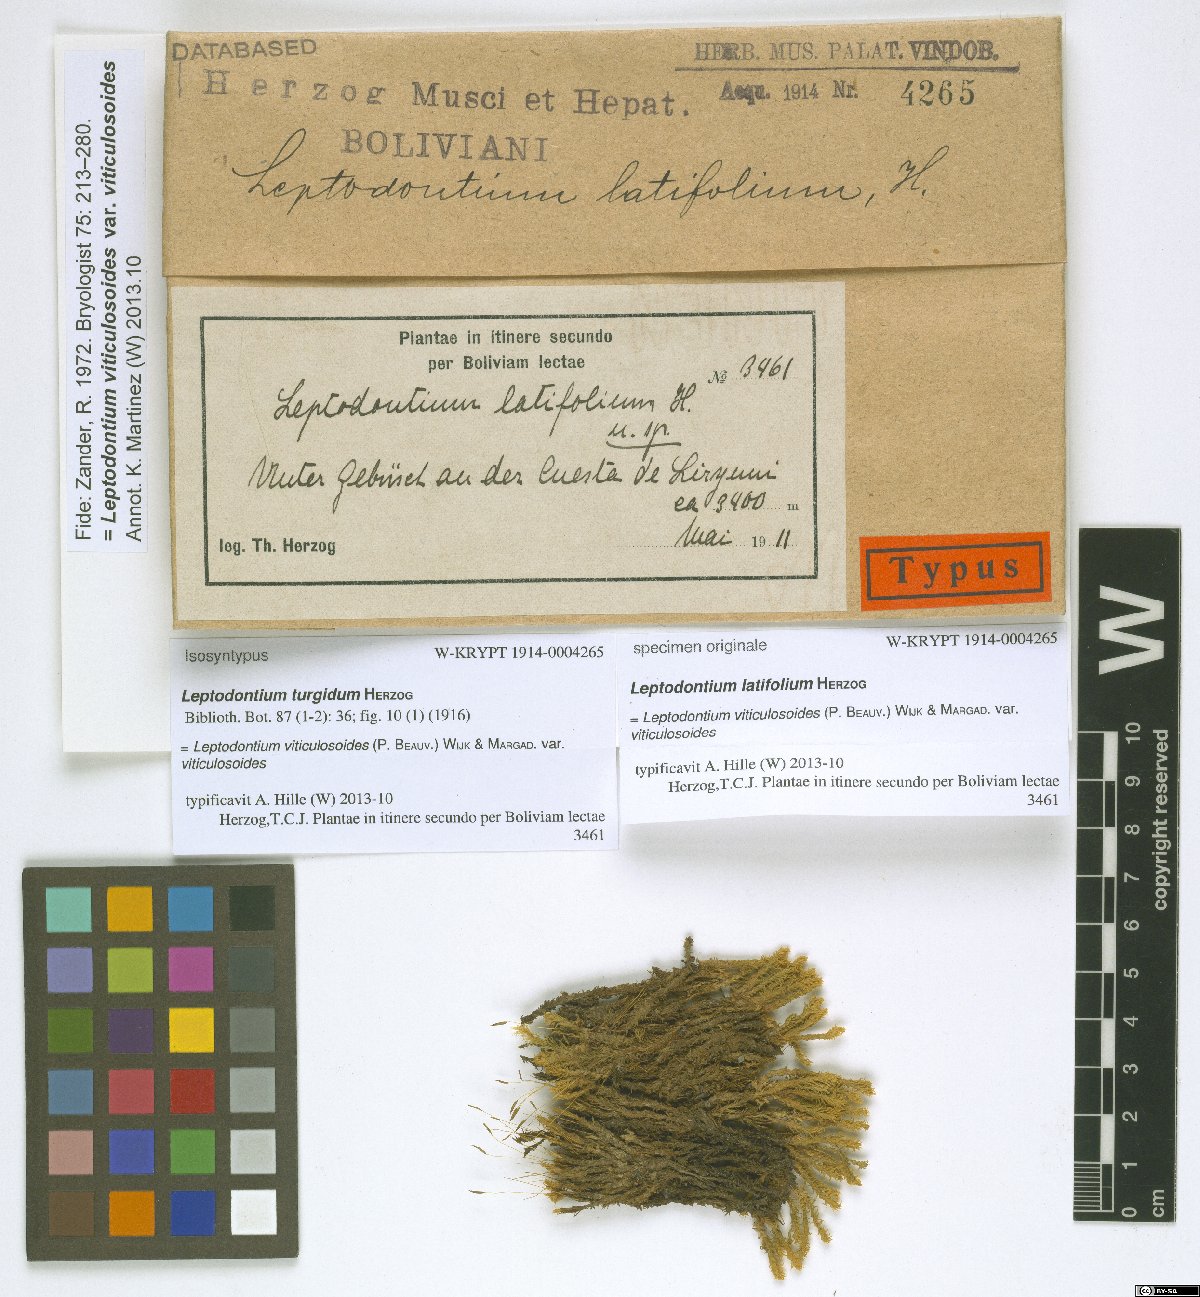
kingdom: Plantae
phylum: Bryophyta
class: Bryopsida
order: Pottiales
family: Pottiaceae
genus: Leptodontium
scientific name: Leptodontium viticulosoides
